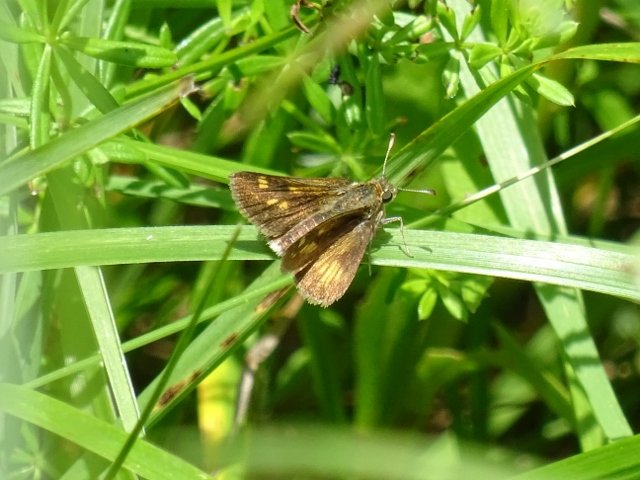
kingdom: Animalia
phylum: Arthropoda
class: Insecta
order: Lepidoptera
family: Hesperiidae
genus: Polites
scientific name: Polites
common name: Long Dash Skipper
